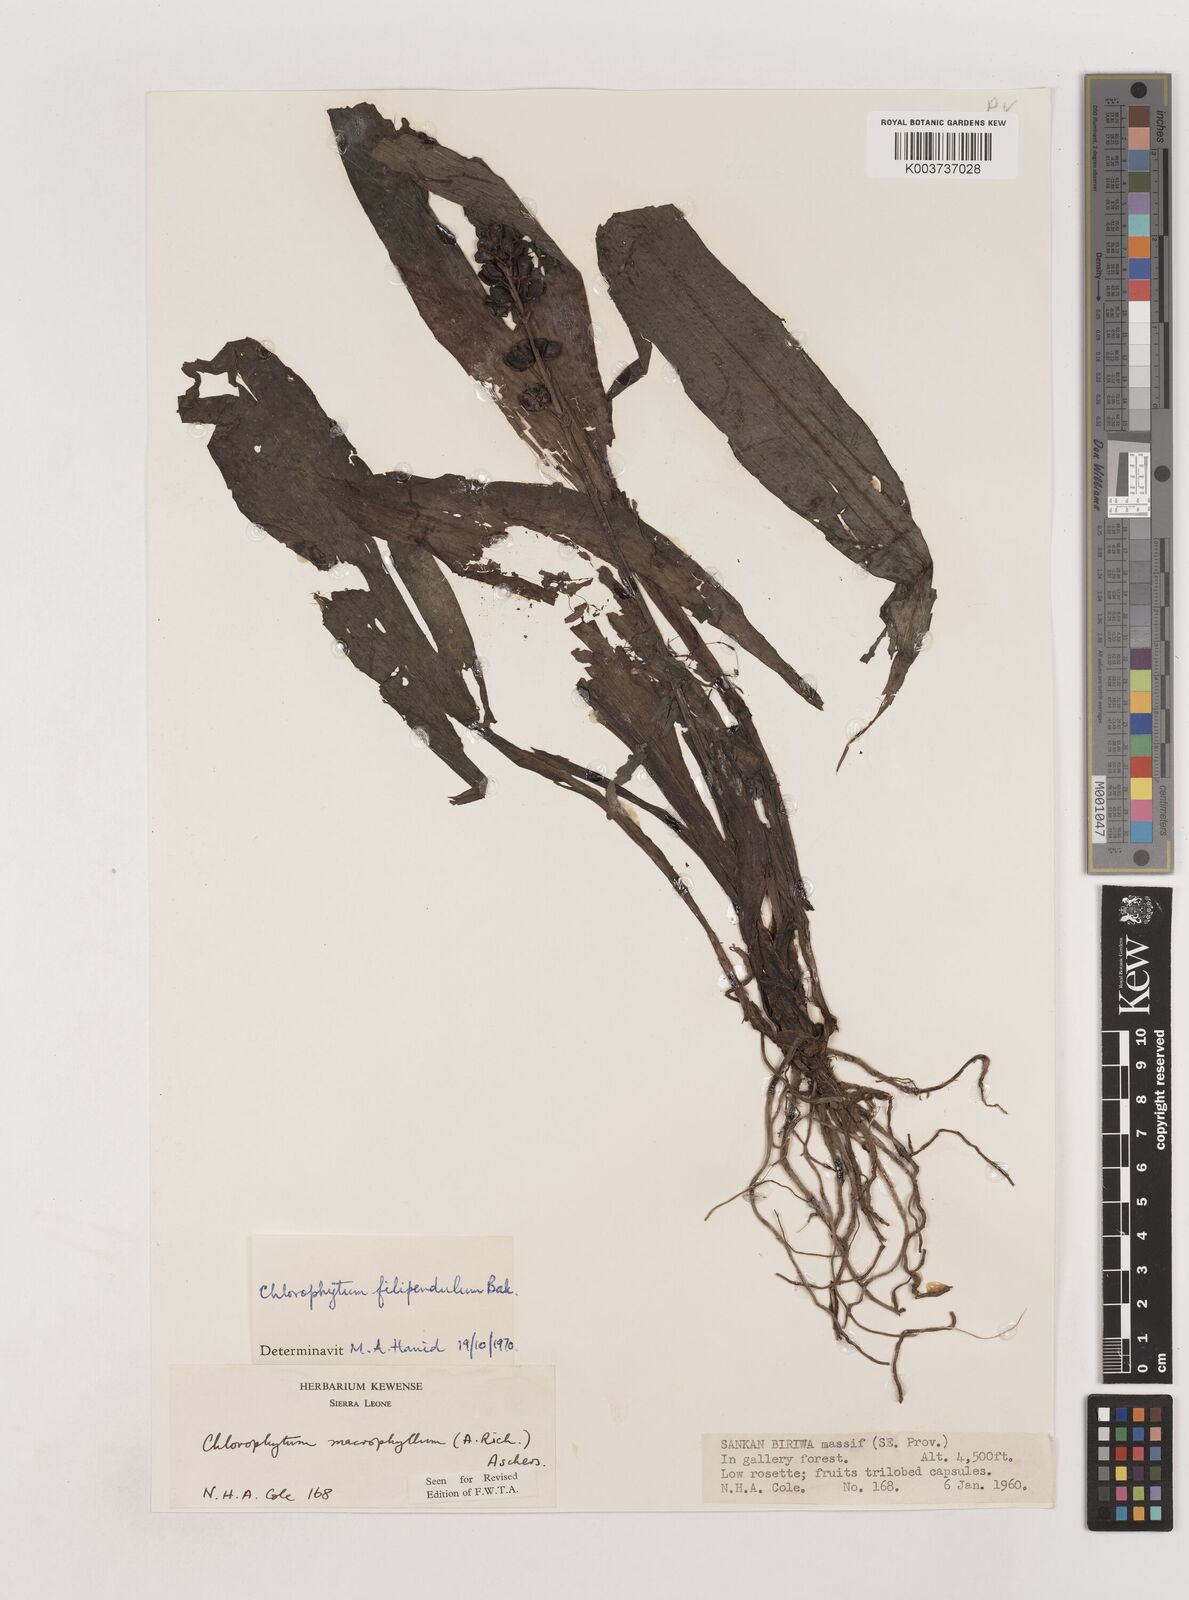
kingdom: Plantae
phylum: Tracheophyta
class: Liliopsida
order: Asparagales
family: Asparagaceae
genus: Chlorophytum
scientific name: Chlorophytum heynei
